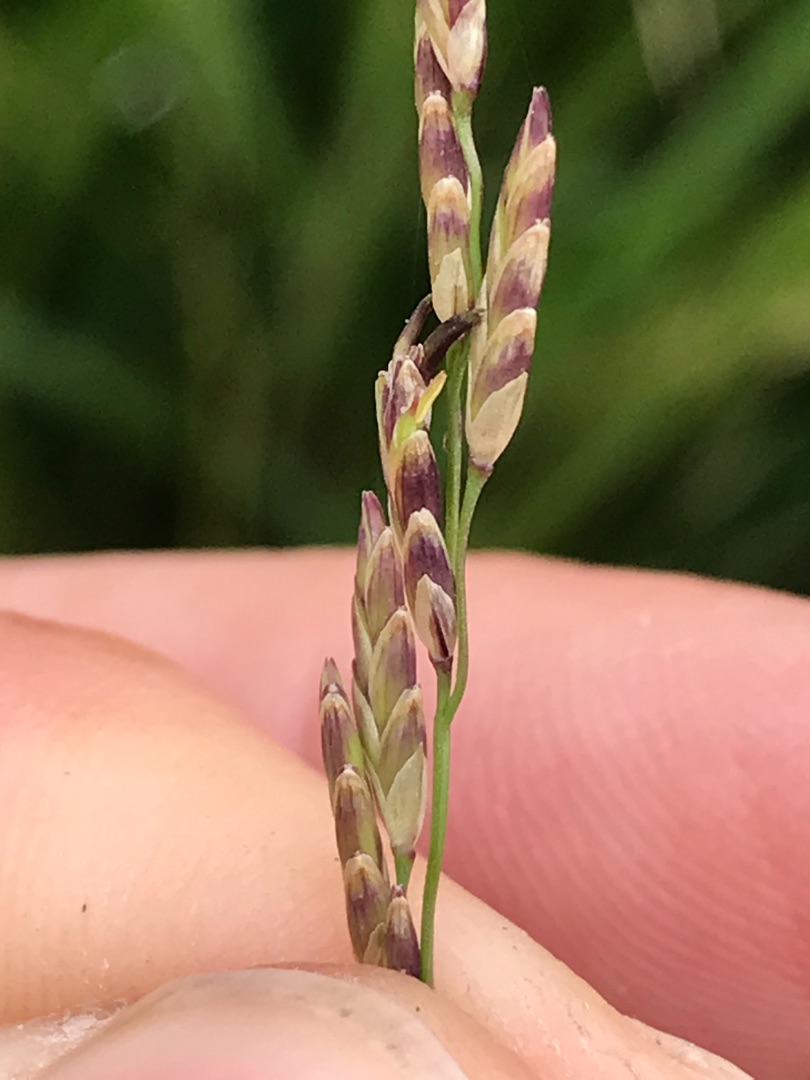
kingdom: Plantae
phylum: Tracheophyta
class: Liliopsida
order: Poales
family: Poaceae
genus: Glyceria
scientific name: Glyceria maxima
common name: Høj sødgræs
